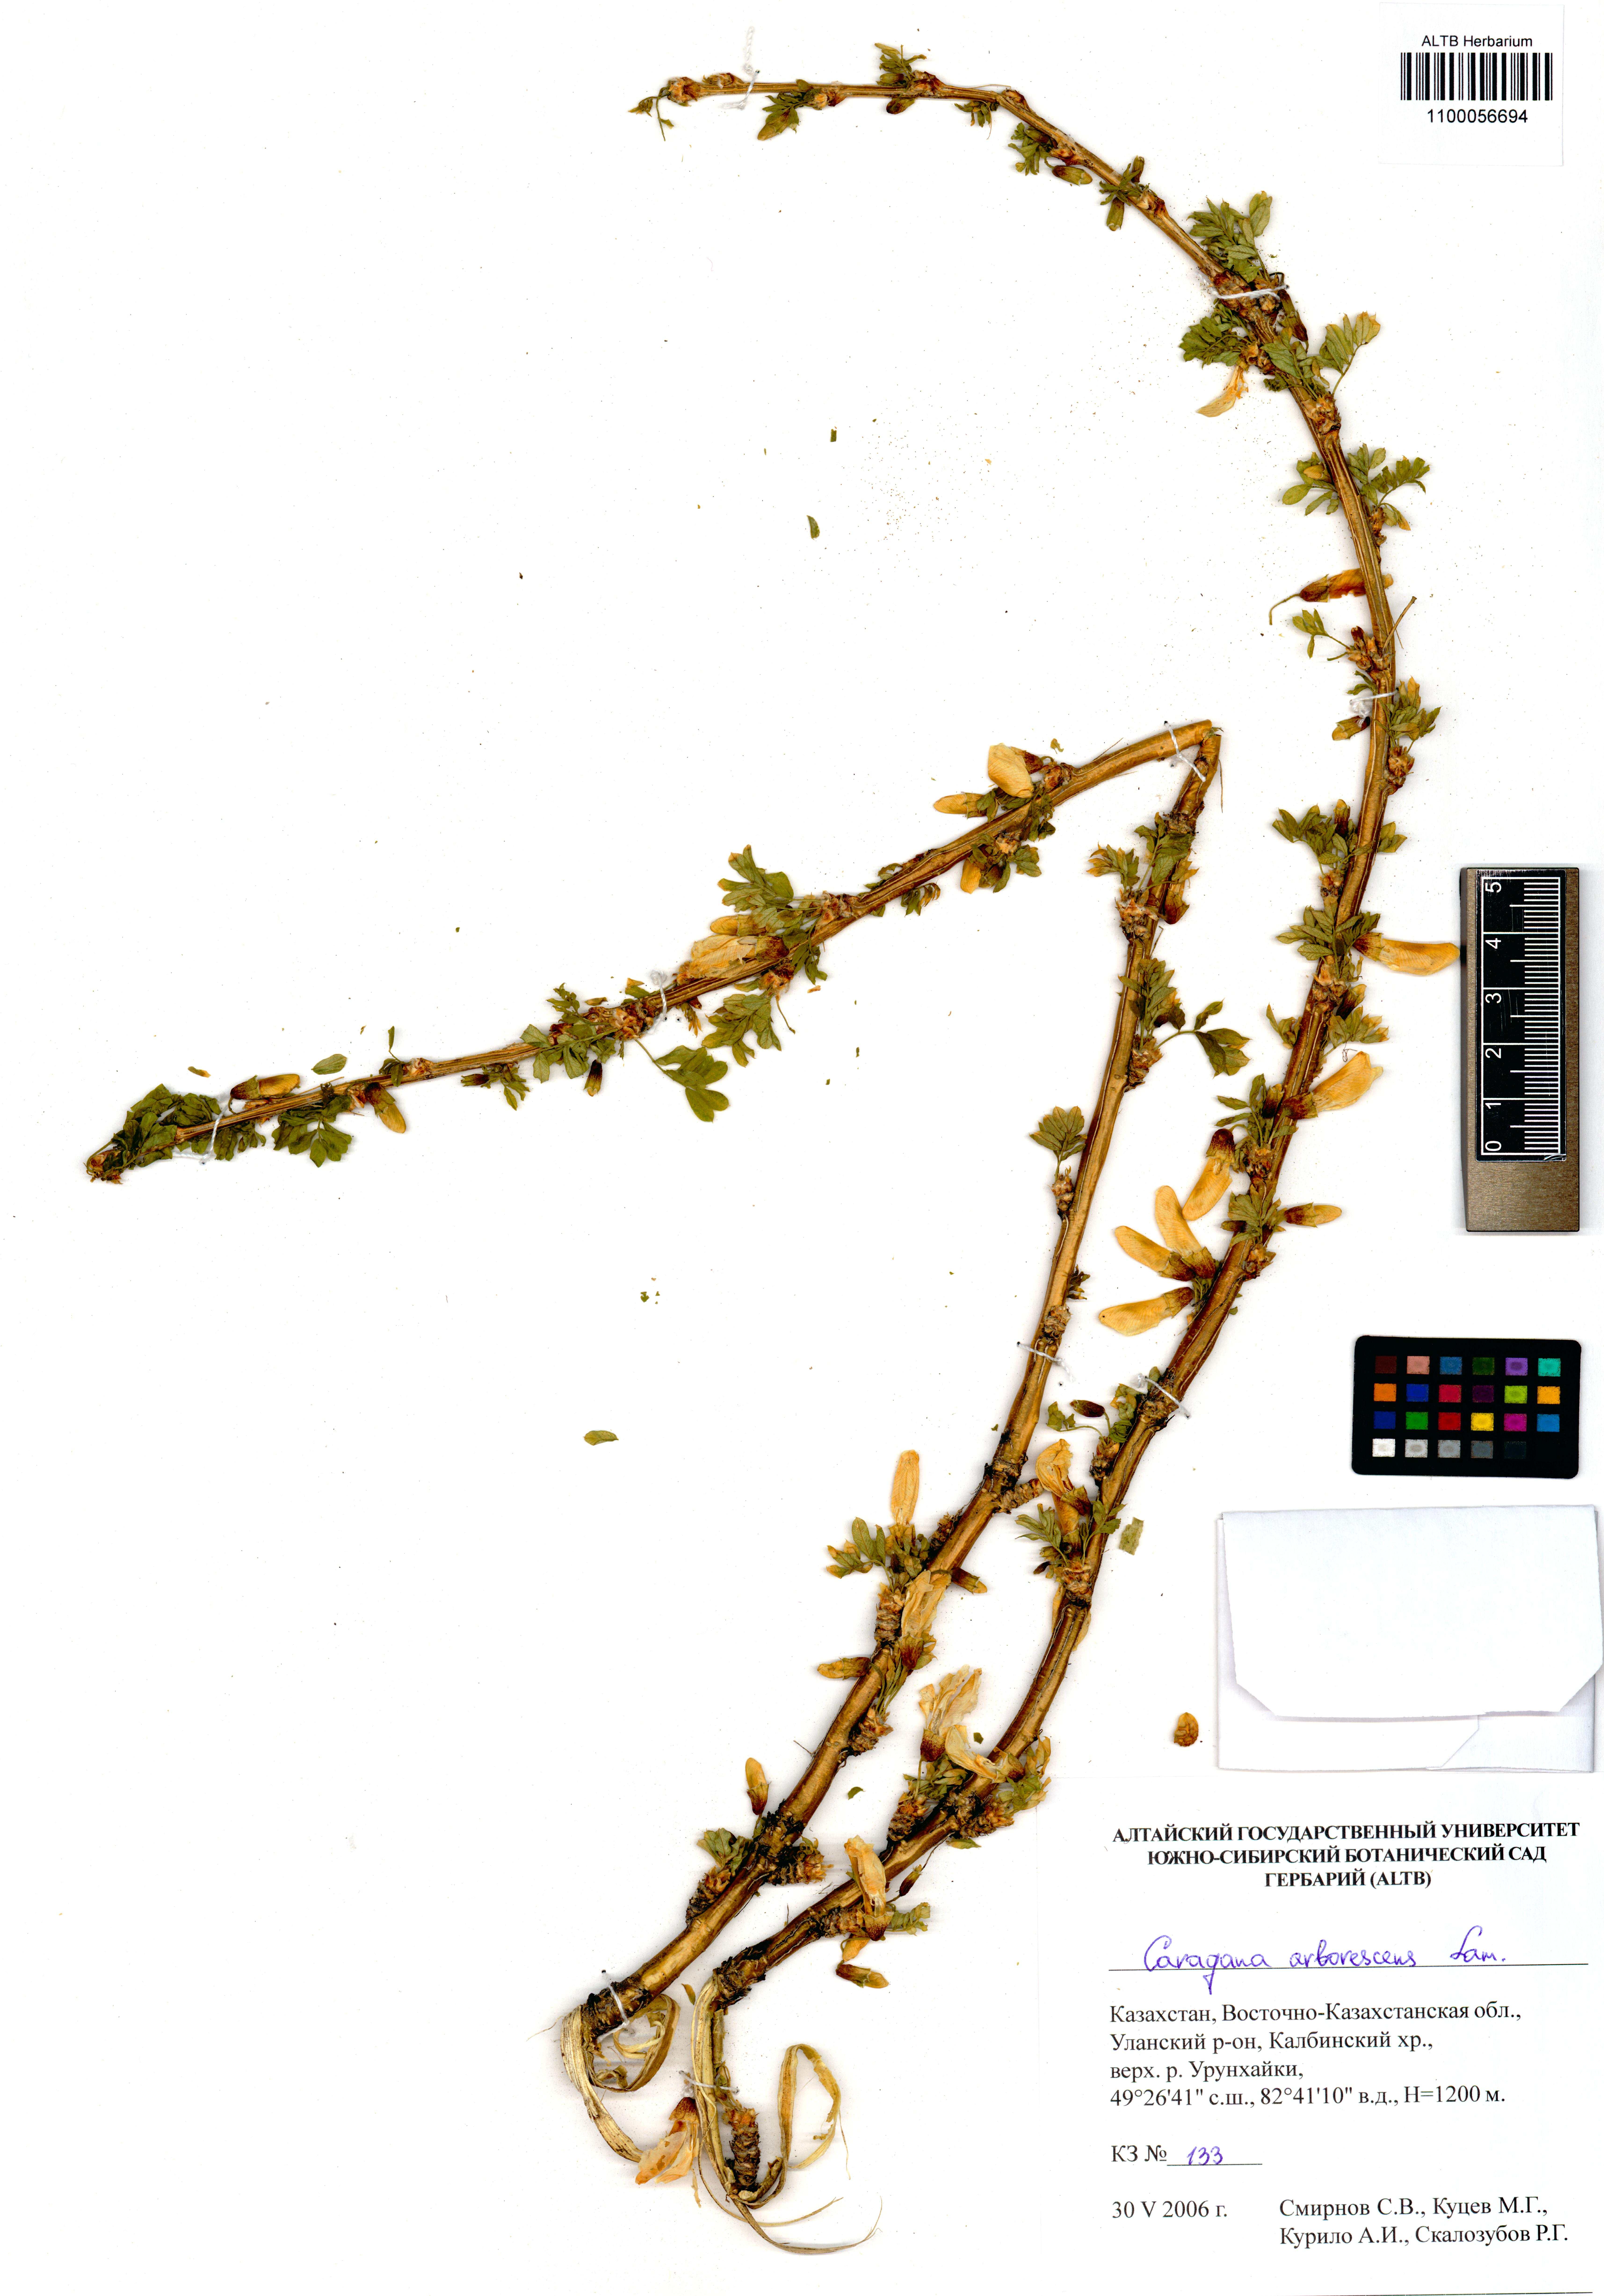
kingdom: Plantae
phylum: Tracheophyta
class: Magnoliopsida
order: Fabales
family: Fabaceae
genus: Caragana
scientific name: Caragana arborescens
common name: Siberian peashrub
